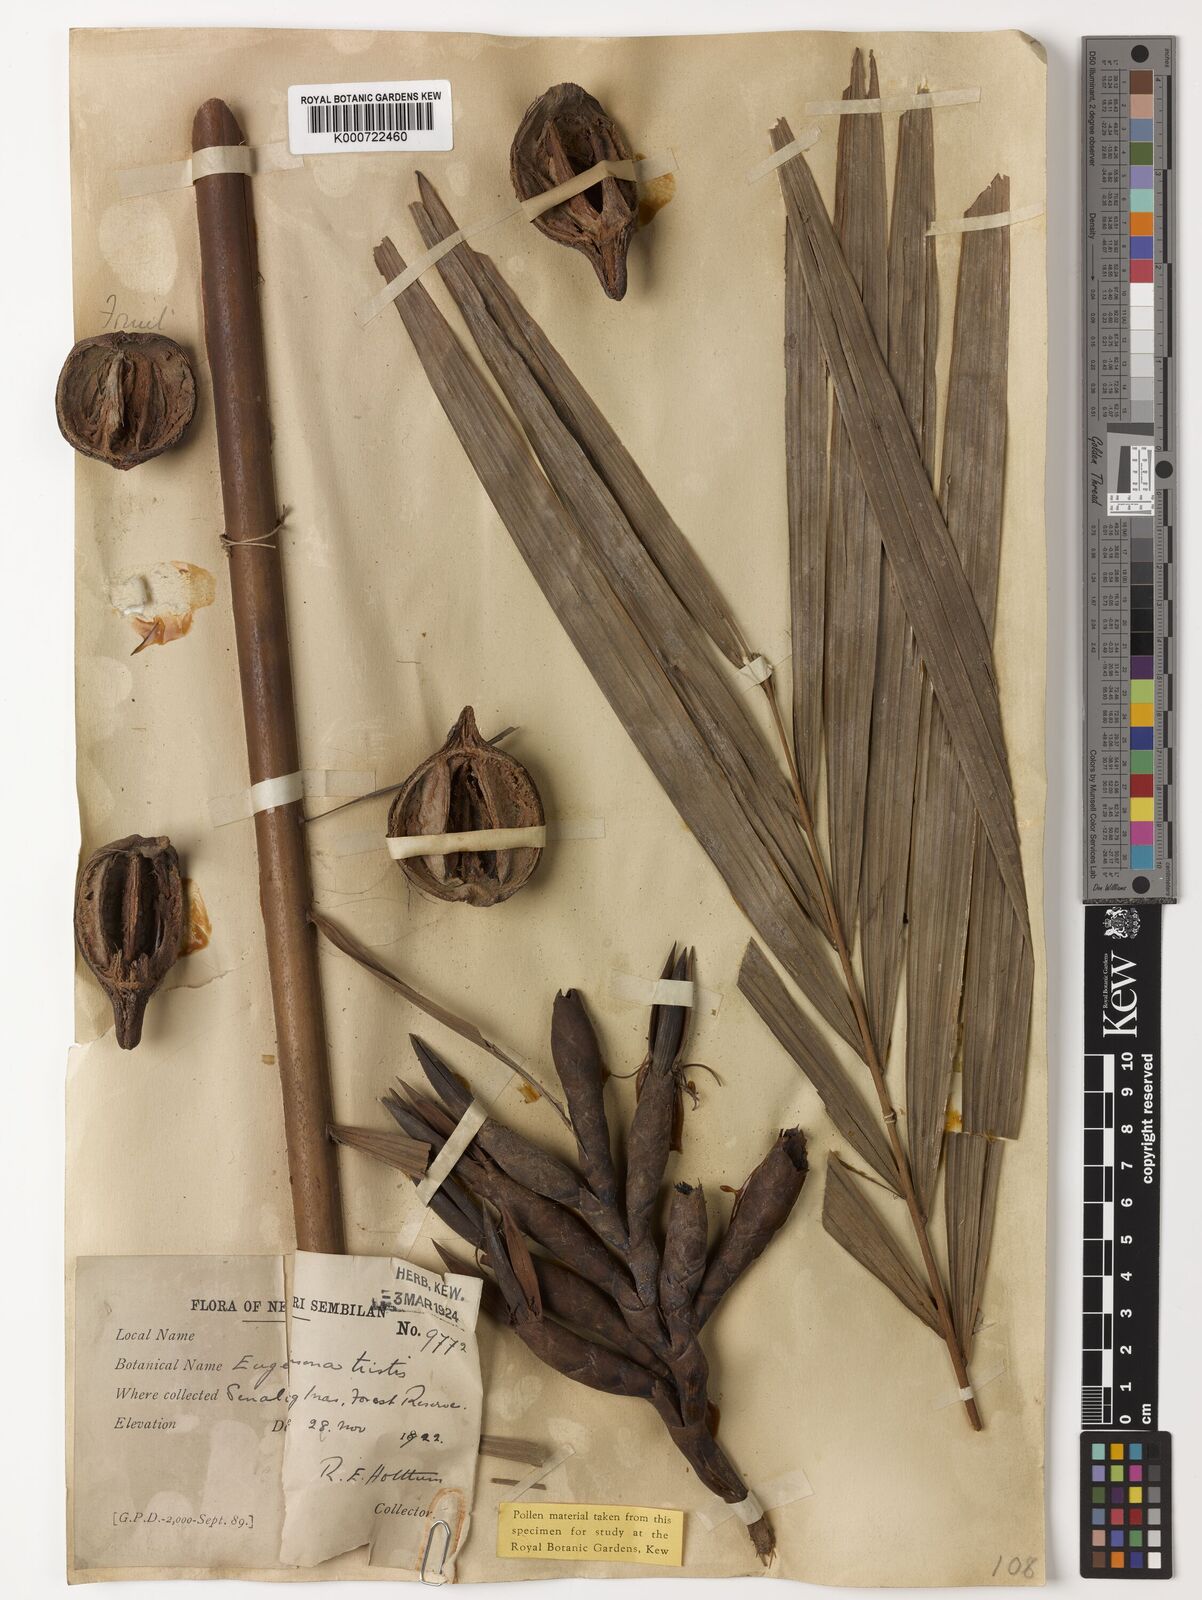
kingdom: Plantae
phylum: Tracheophyta
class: Liliopsida
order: Arecales
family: Arecaceae
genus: Eugeissona
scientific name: Eugeissona tristis
